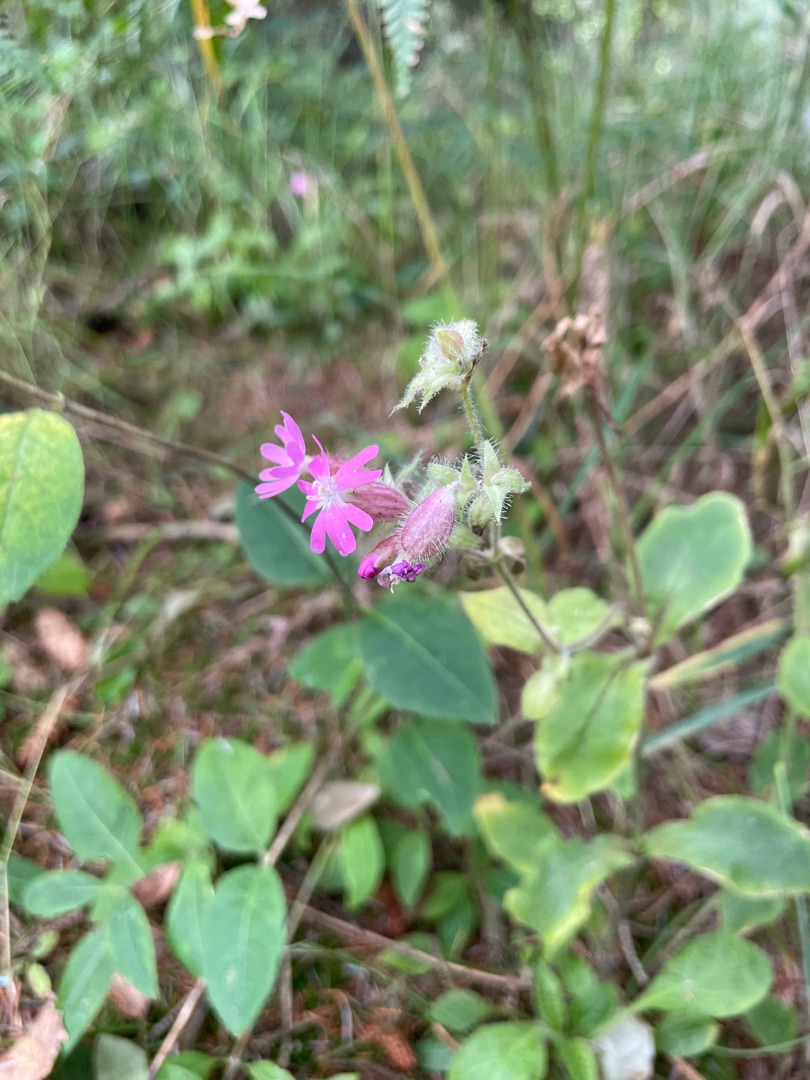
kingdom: Plantae
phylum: Tracheophyta
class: Magnoliopsida
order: Caryophyllales
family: Caryophyllaceae
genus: Silene
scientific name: Silene dioica
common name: Dagpragtstjerne
